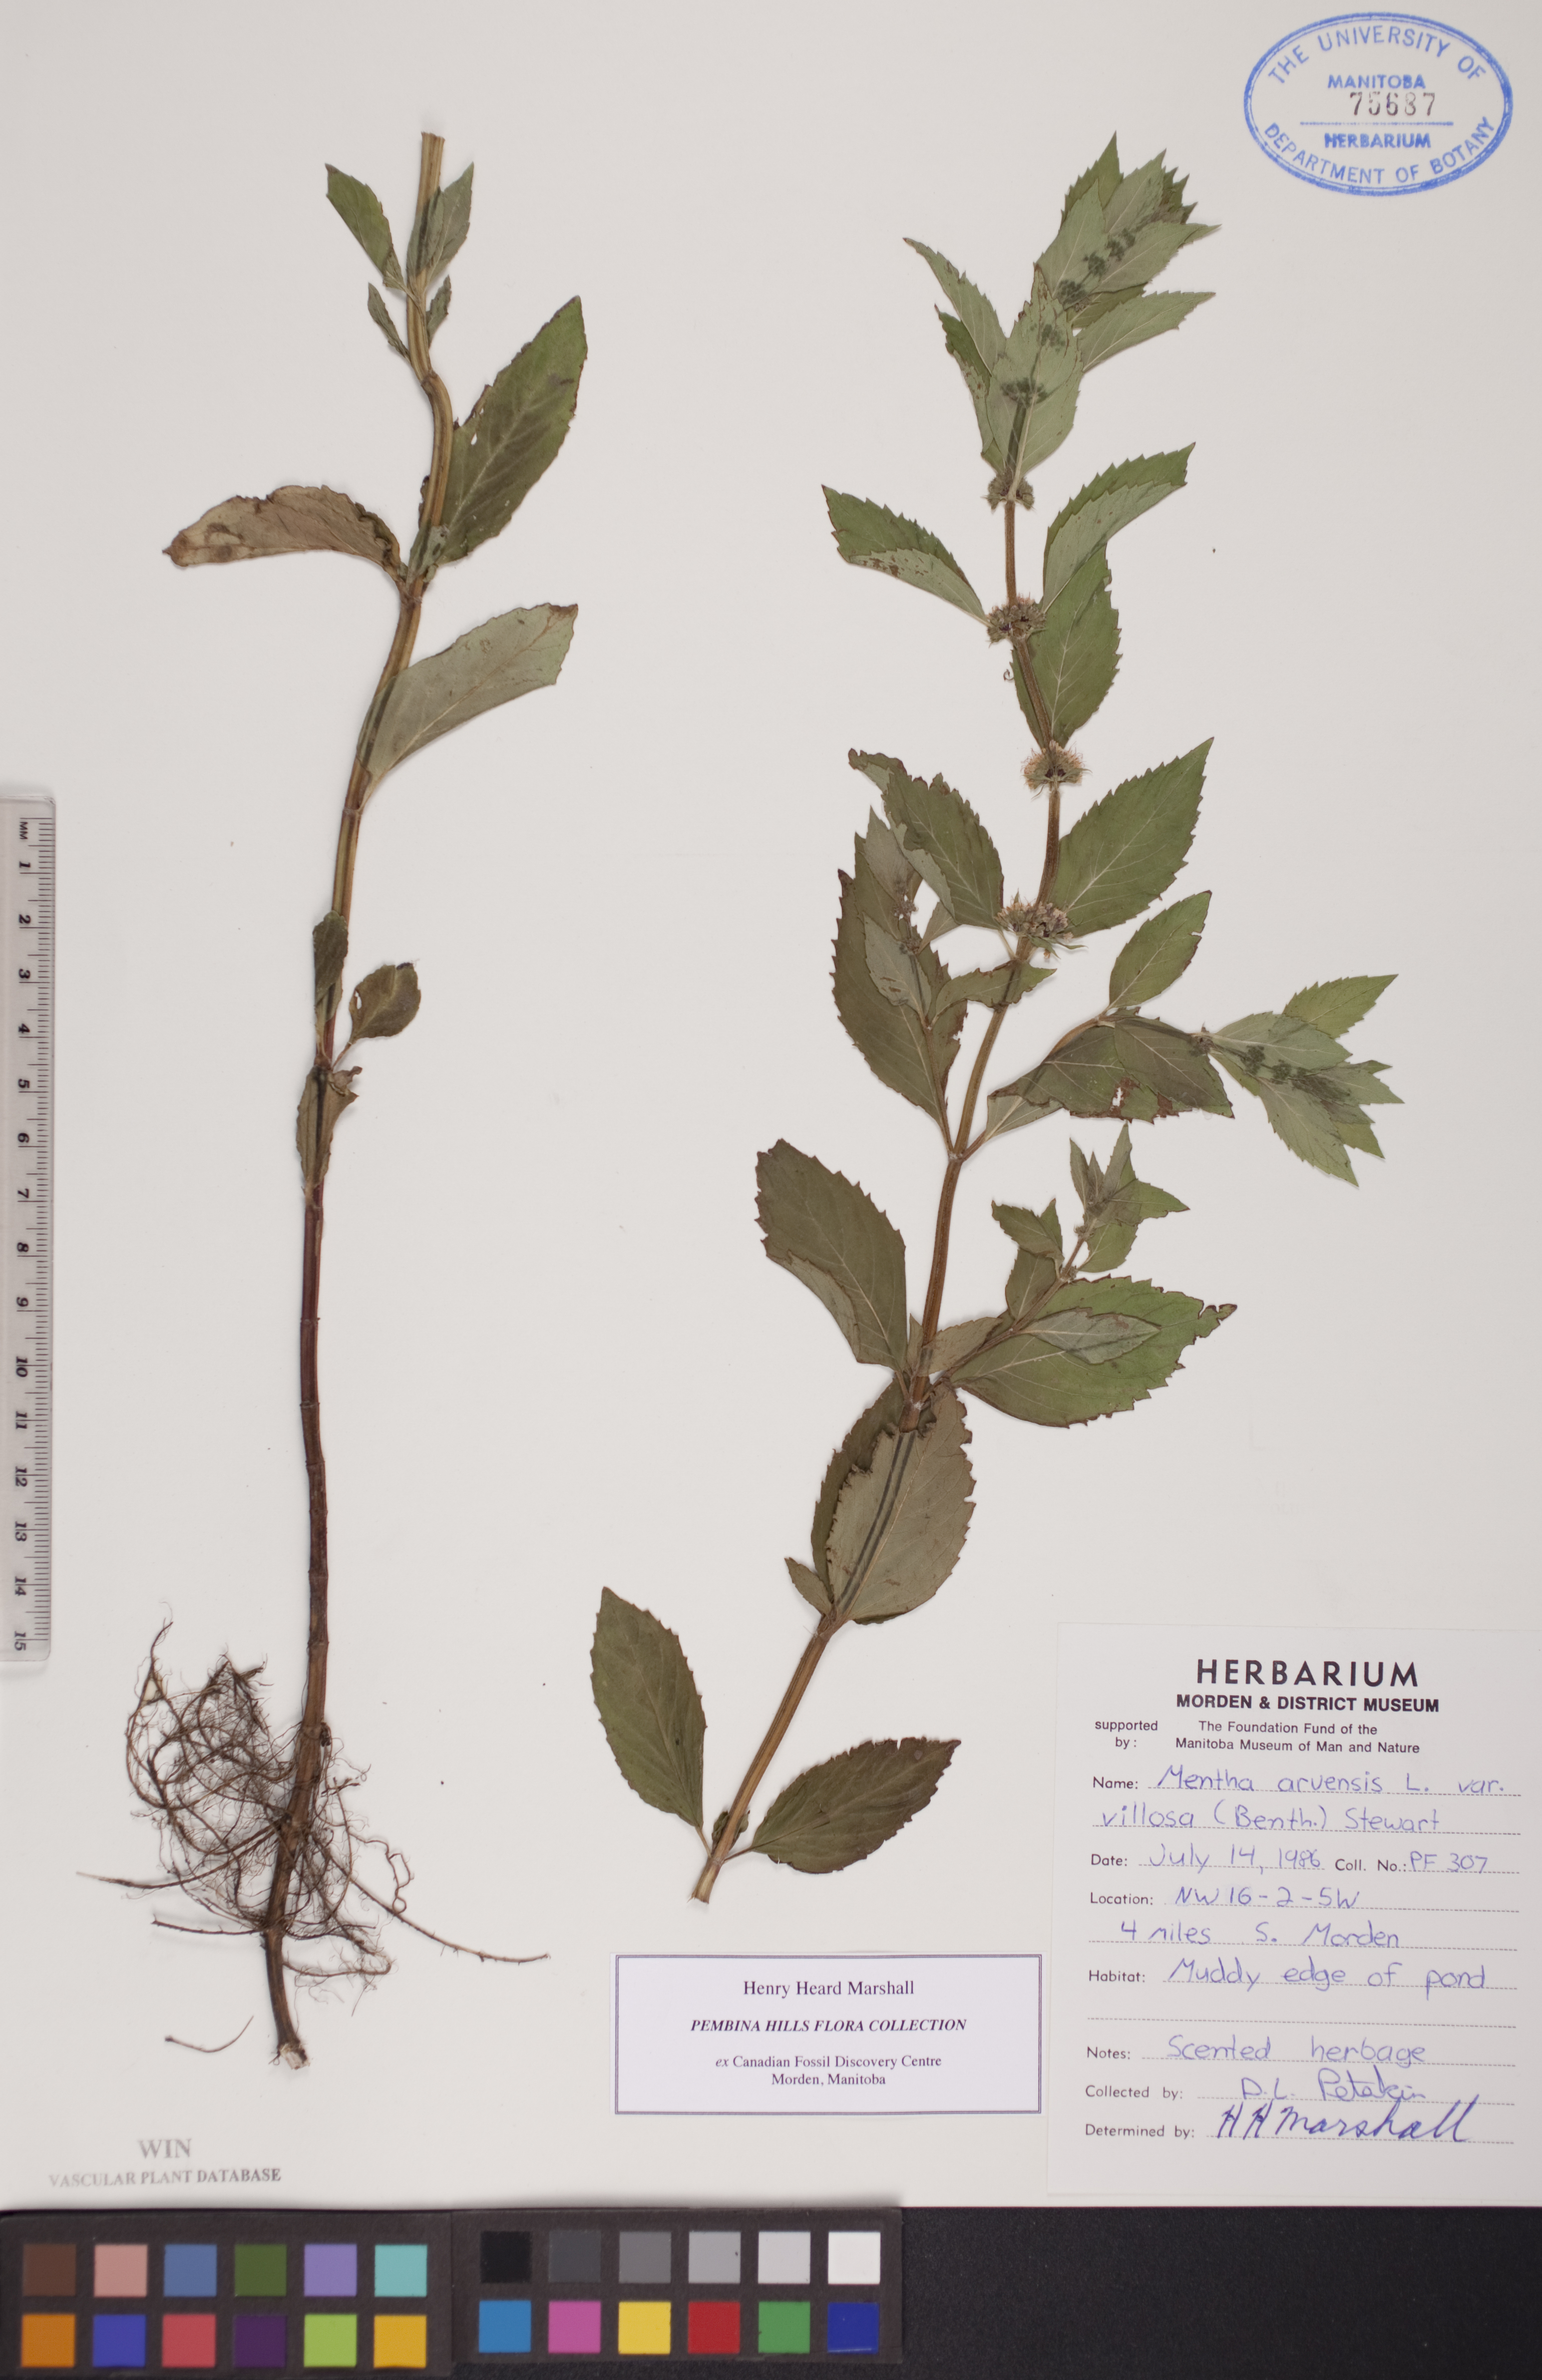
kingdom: Plantae
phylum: Tracheophyta
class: Magnoliopsida
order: Lamiales
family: Lamiaceae
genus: Mentha
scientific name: Mentha canadensis
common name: American corn mint
